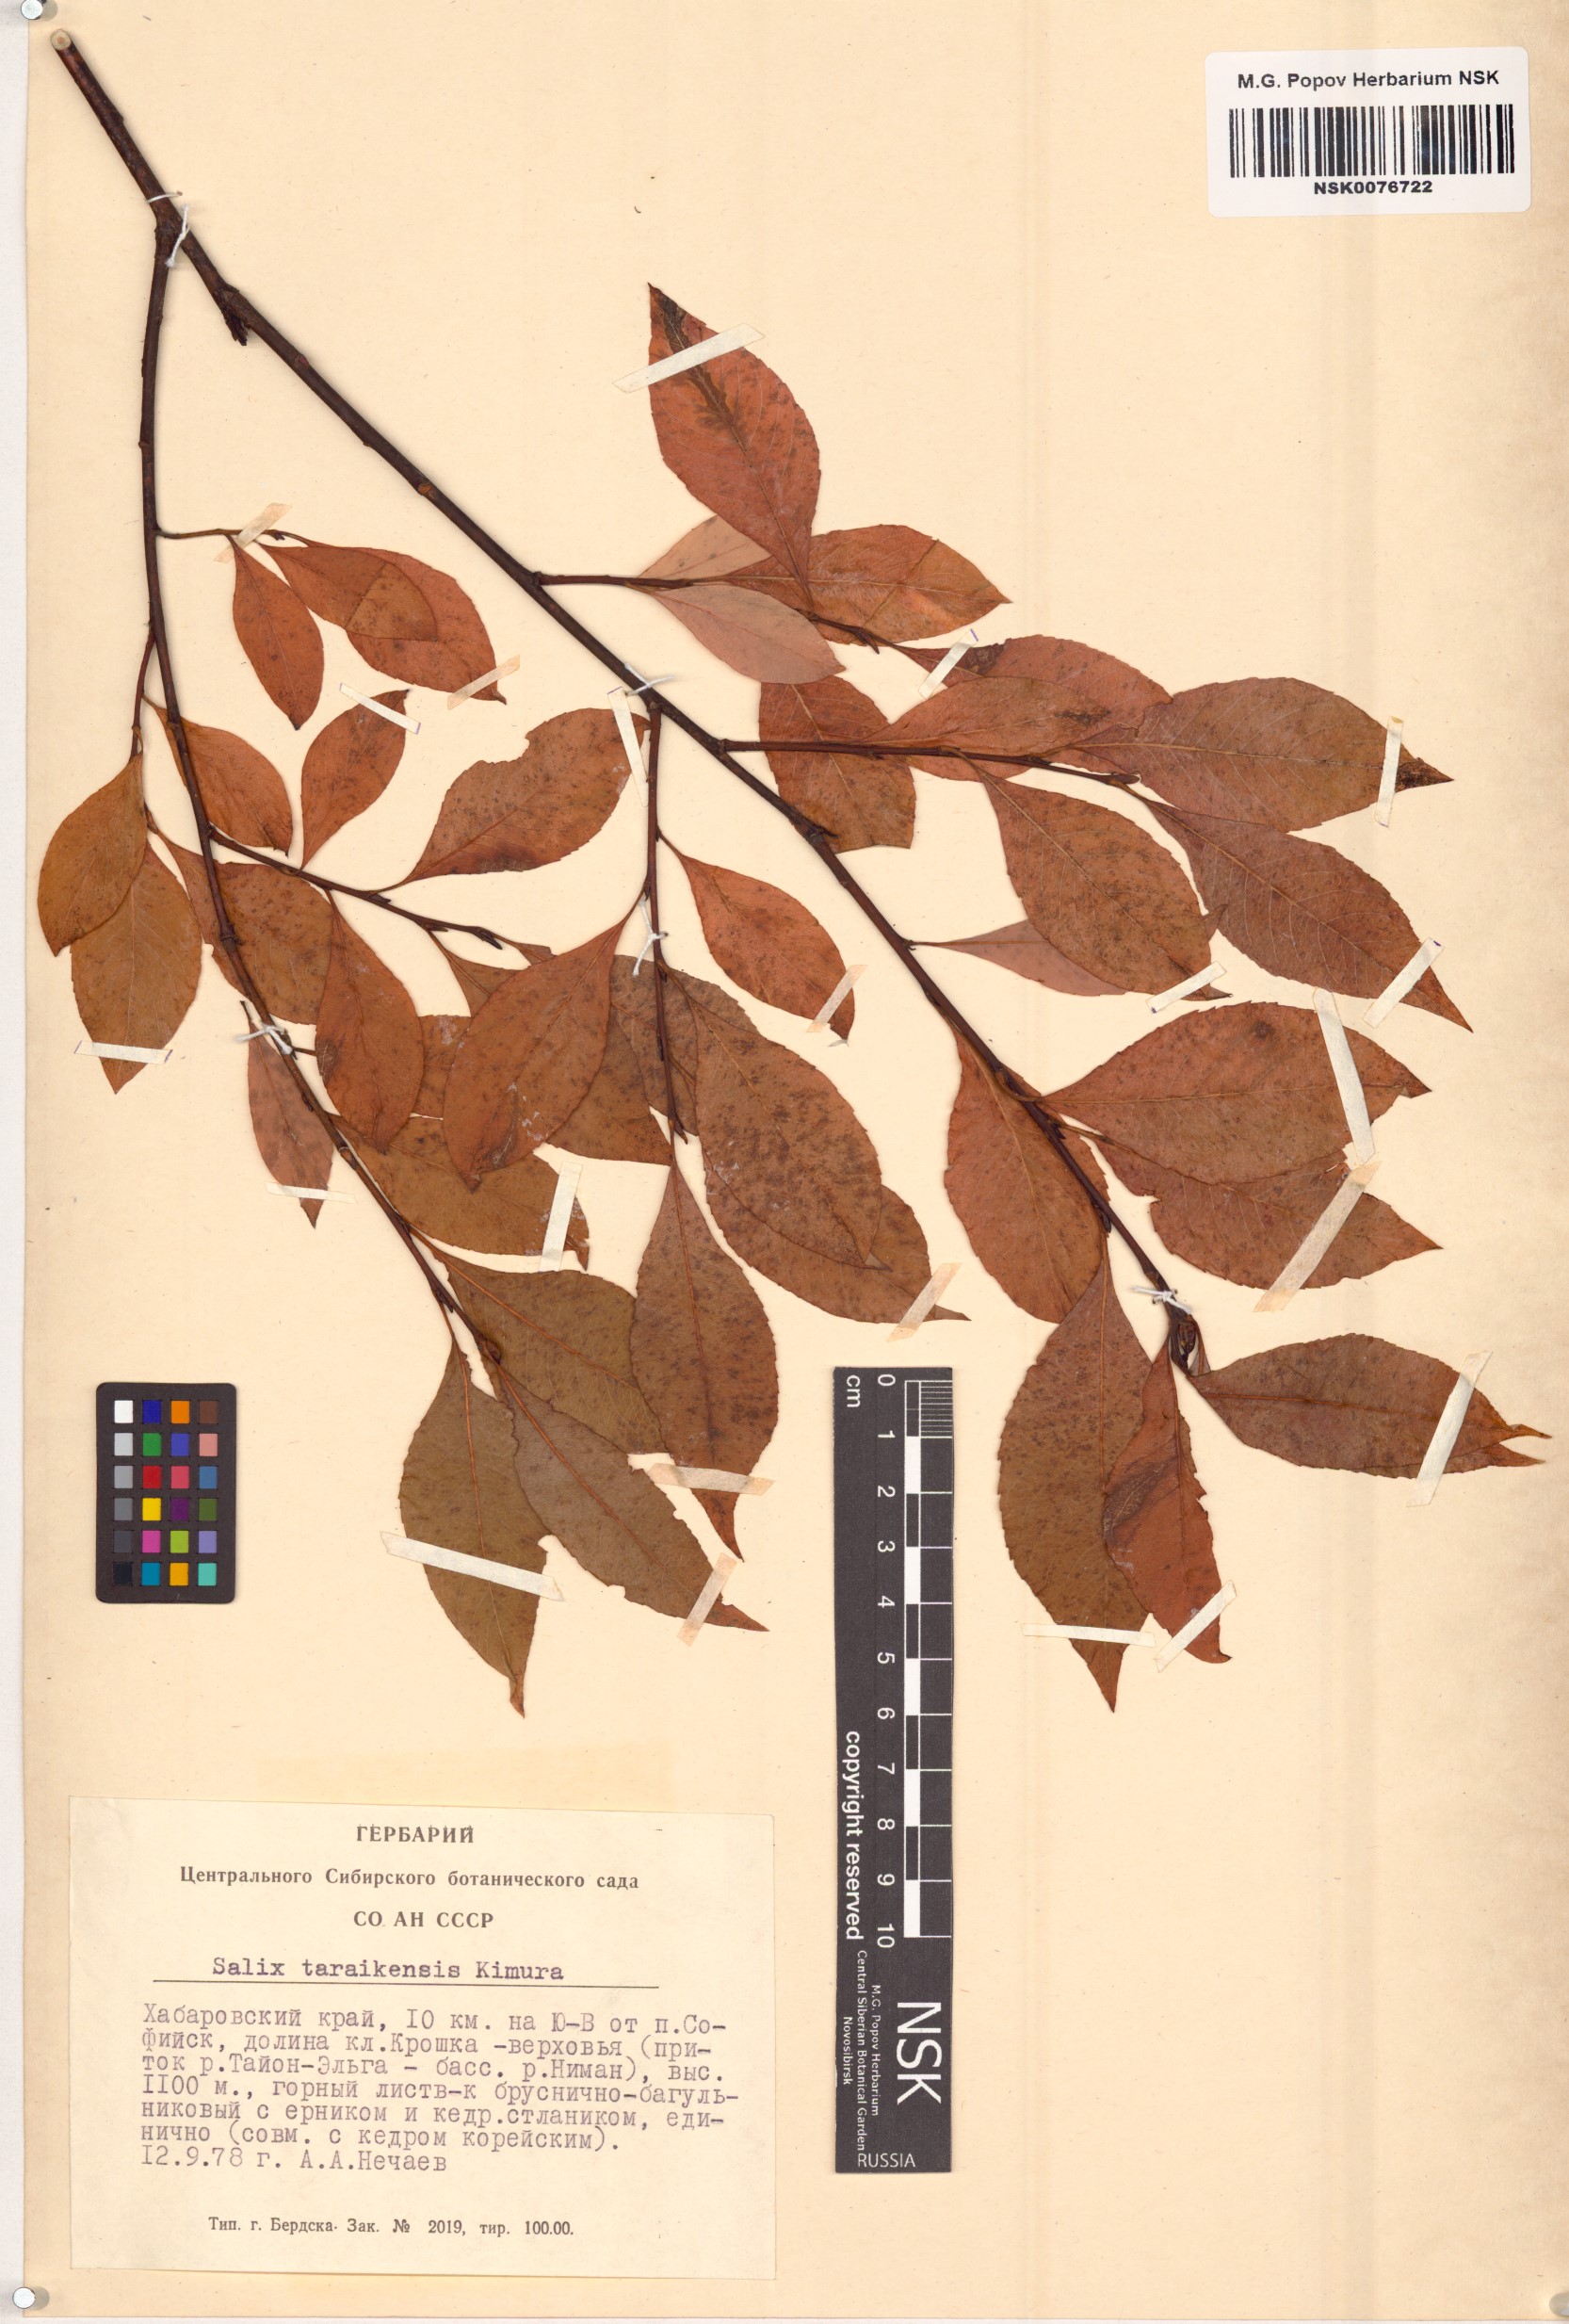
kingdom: Plantae
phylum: Tracheophyta
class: Magnoliopsida
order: Malpighiales
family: Salicaceae
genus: Salix
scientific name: Salix taraikensis
